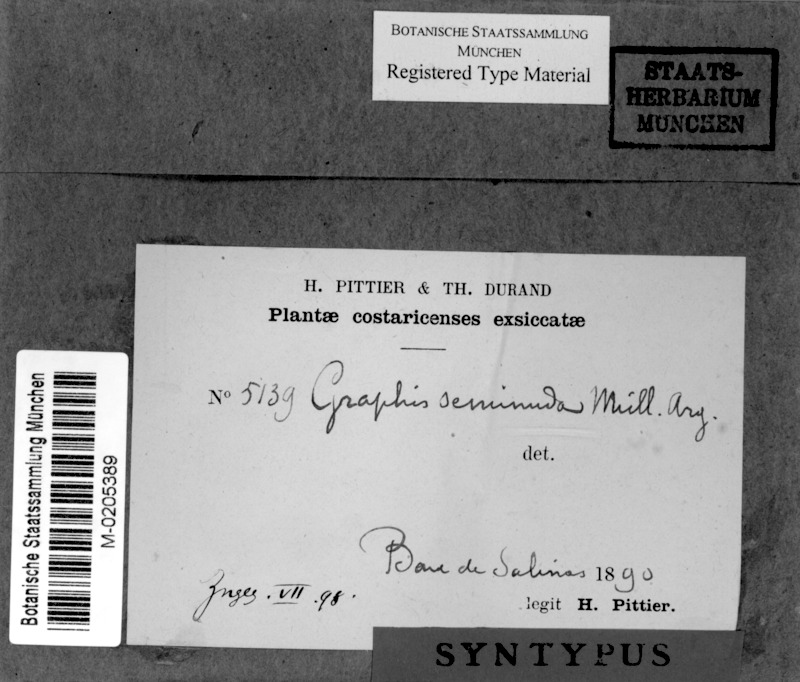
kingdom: Fungi
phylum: Ascomycota
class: Lecanoromycetes
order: Ostropales
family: Graphidaceae
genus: Allographa
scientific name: Allographa seminuda
